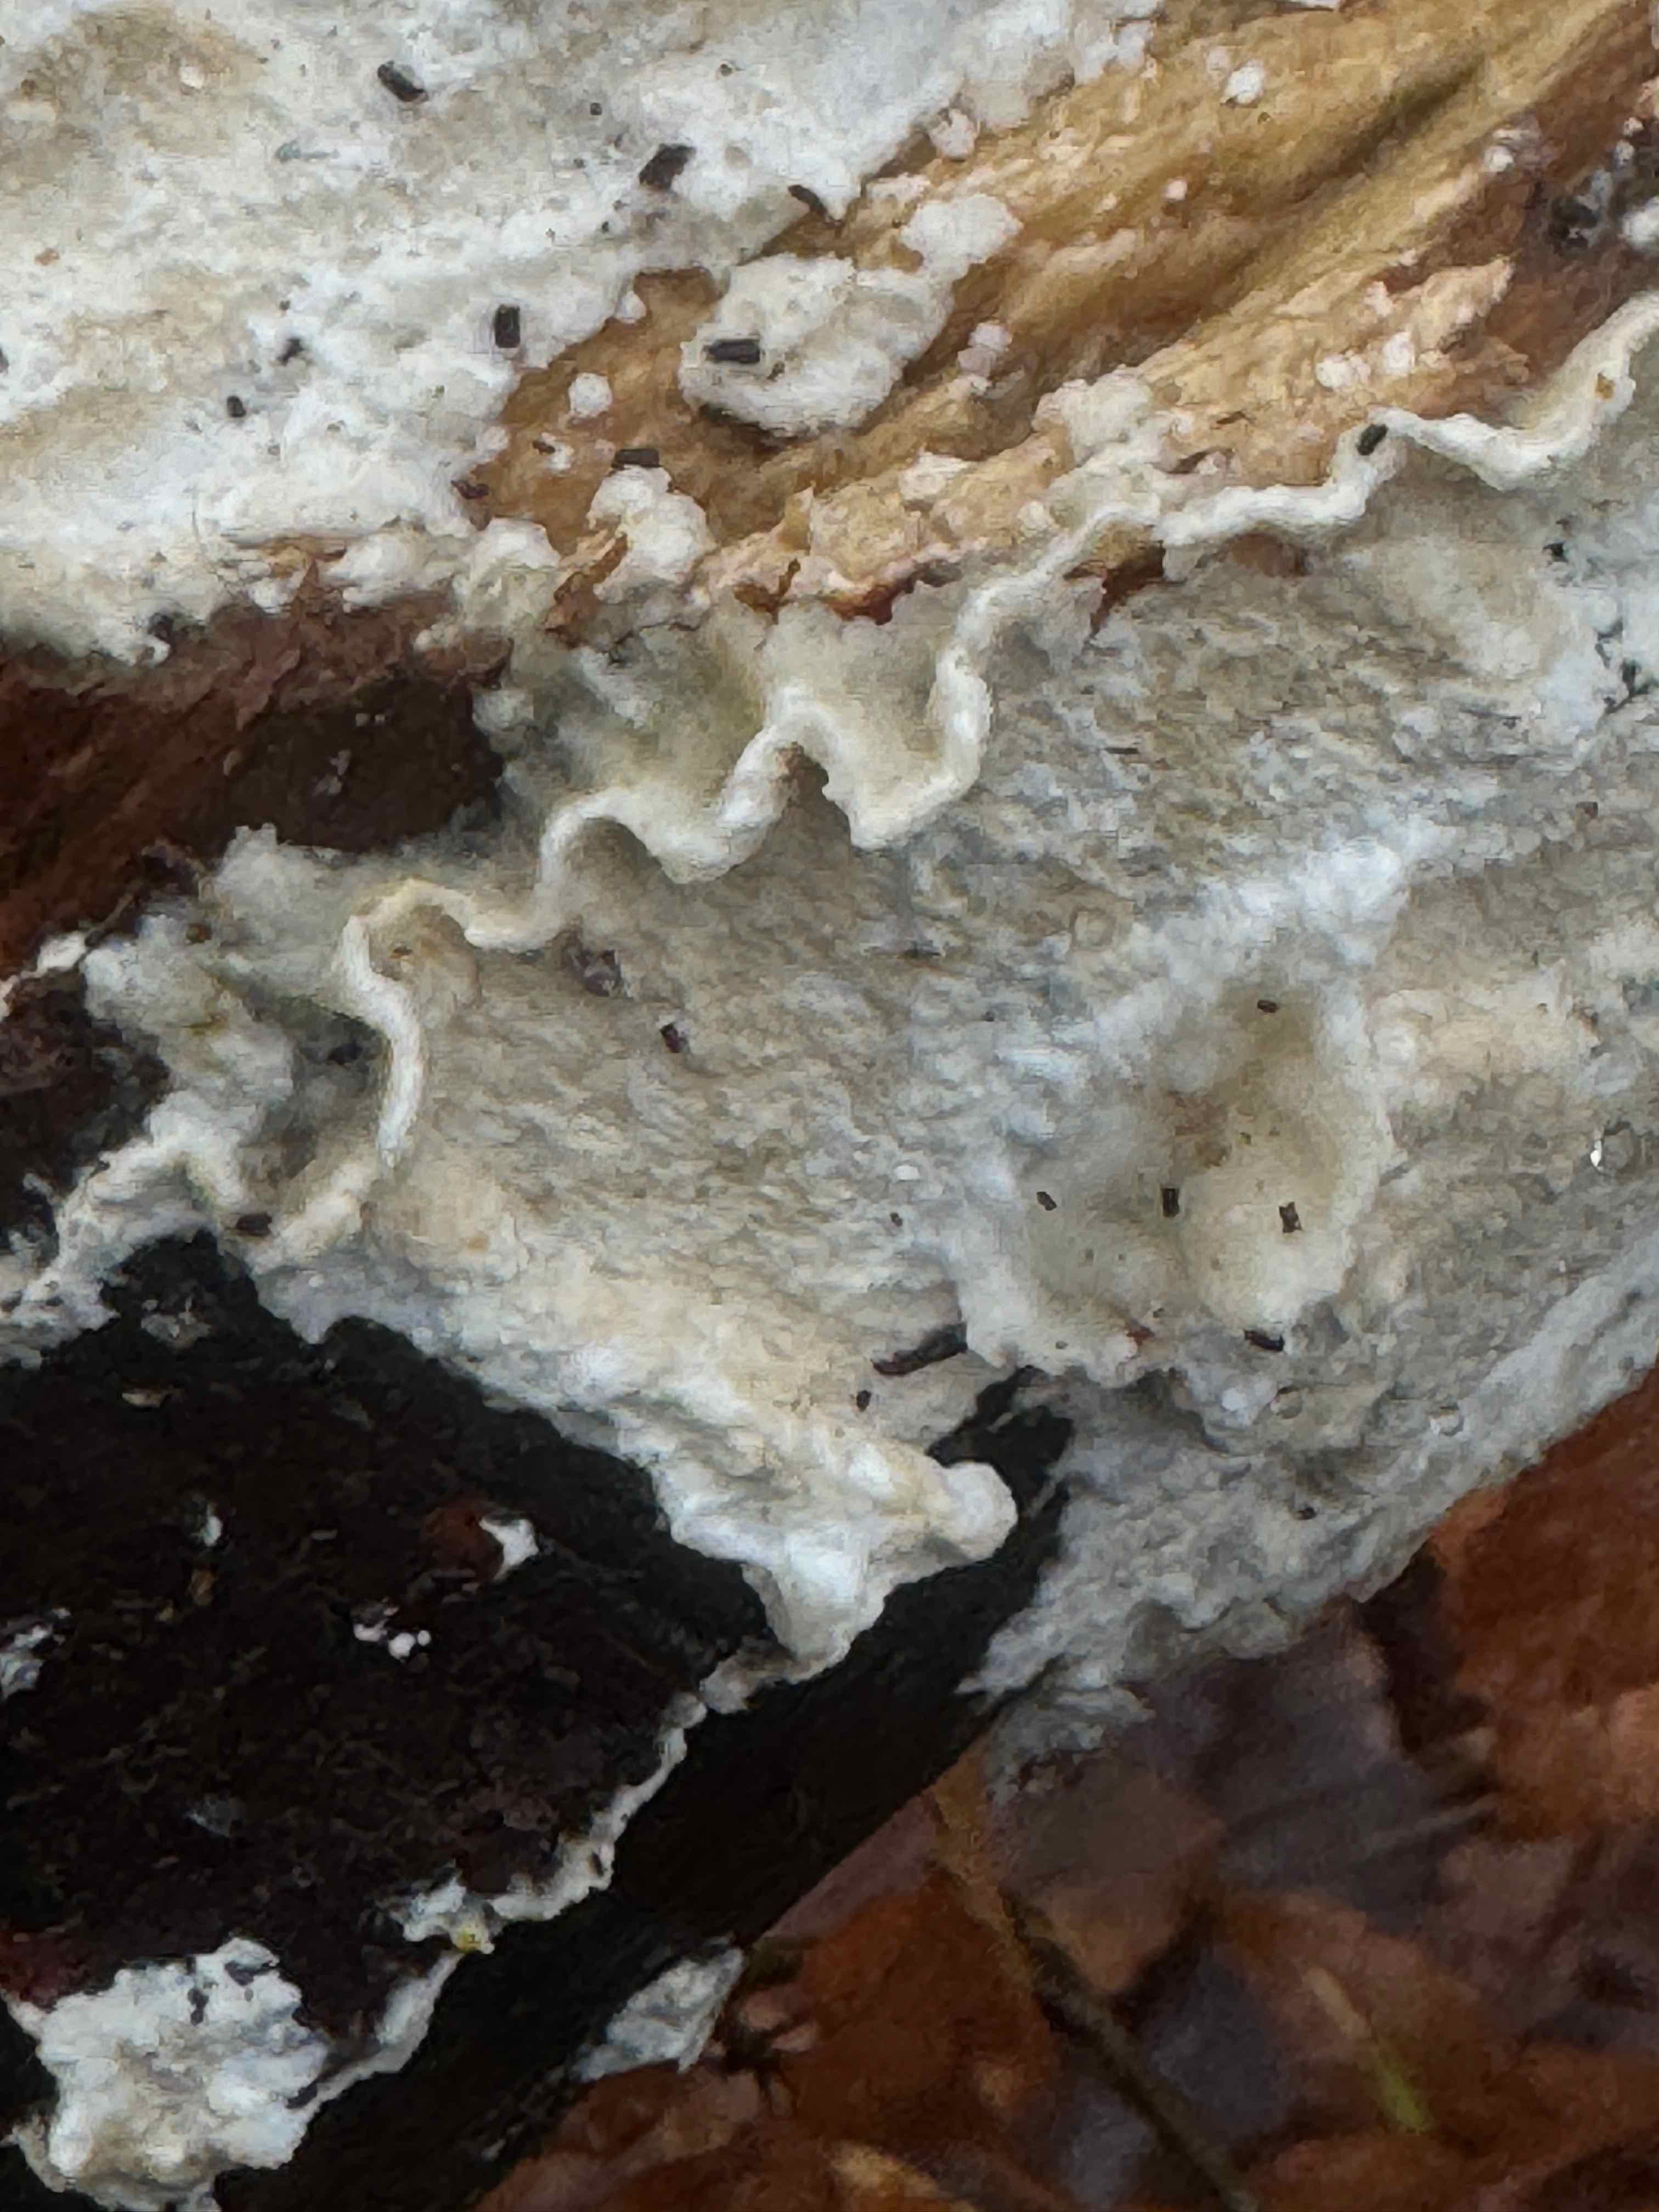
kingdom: Fungi
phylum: Basidiomycota
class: Agaricomycetes
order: Polyporales
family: Irpicaceae
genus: Byssomerulius
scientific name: Byssomerulius corium
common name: læder-åresvamp
